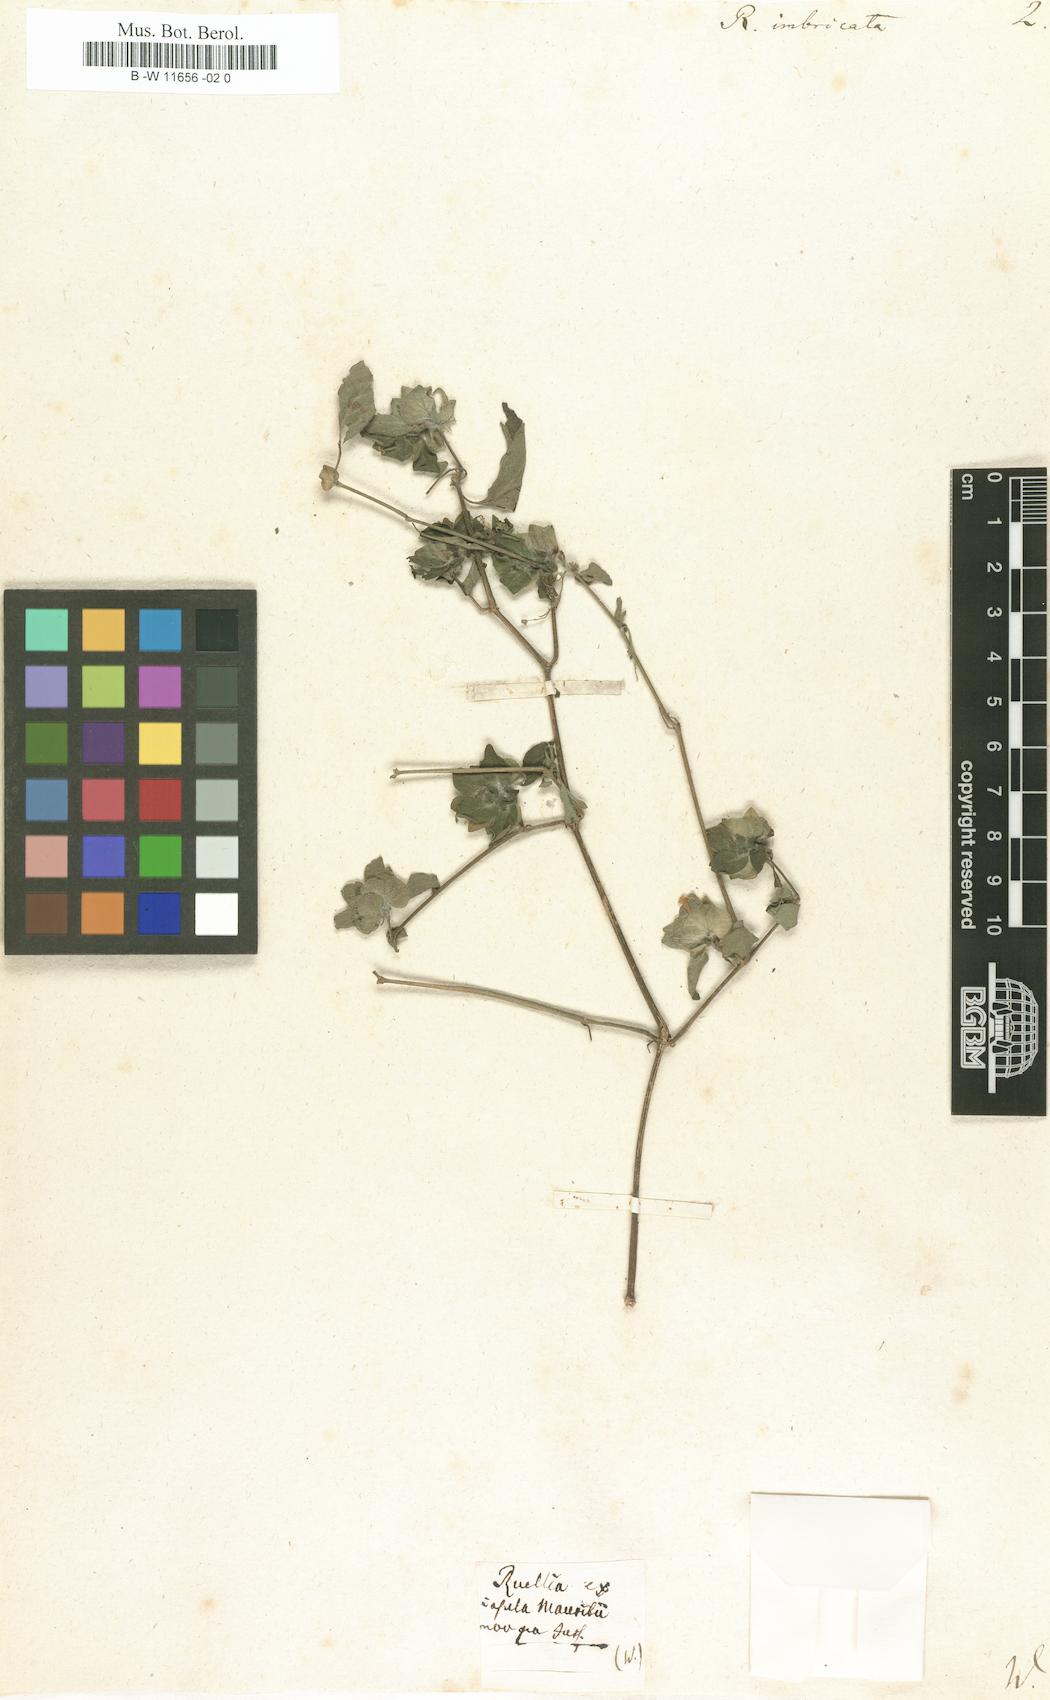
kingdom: Plantae
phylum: Tracheophyta
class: Magnoliopsida
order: Lamiales
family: Acanthaceae
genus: Phaulopsis
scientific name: Phaulopsis imbricata
